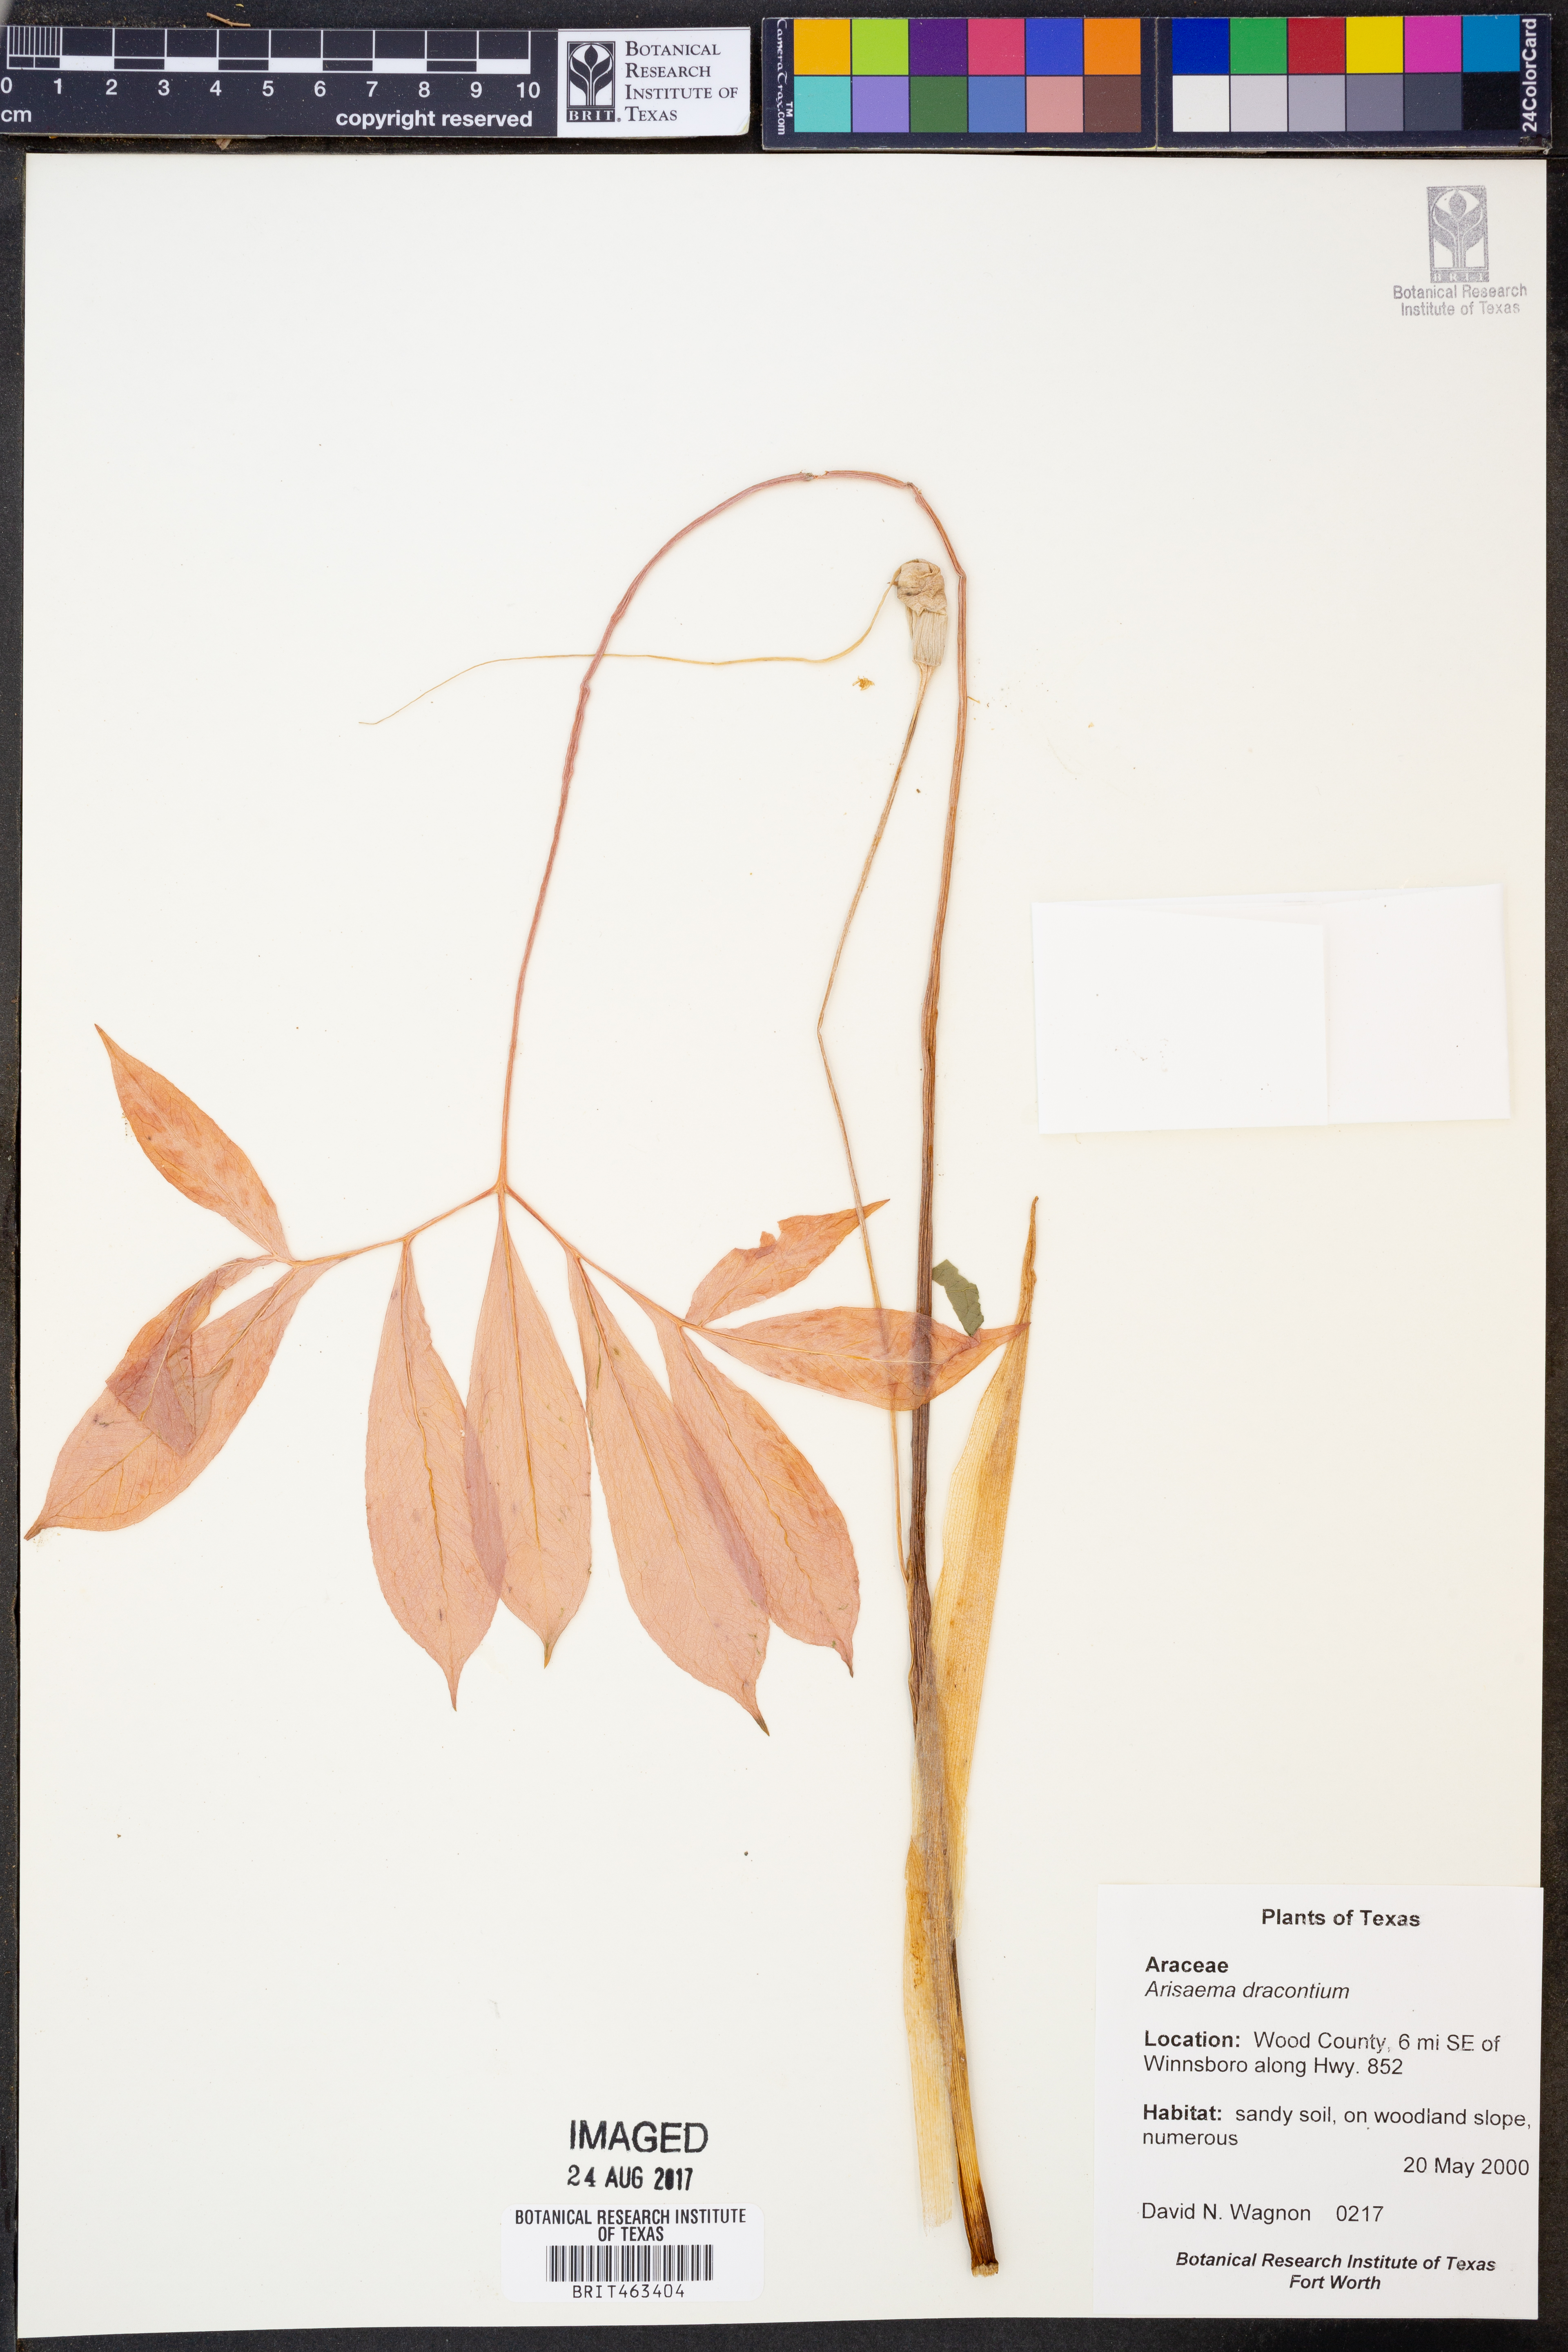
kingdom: Plantae
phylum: Tracheophyta
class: Liliopsida
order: Alismatales
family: Araceae
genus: Arisaema
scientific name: Arisaema dracontium
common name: Dragon-arum
